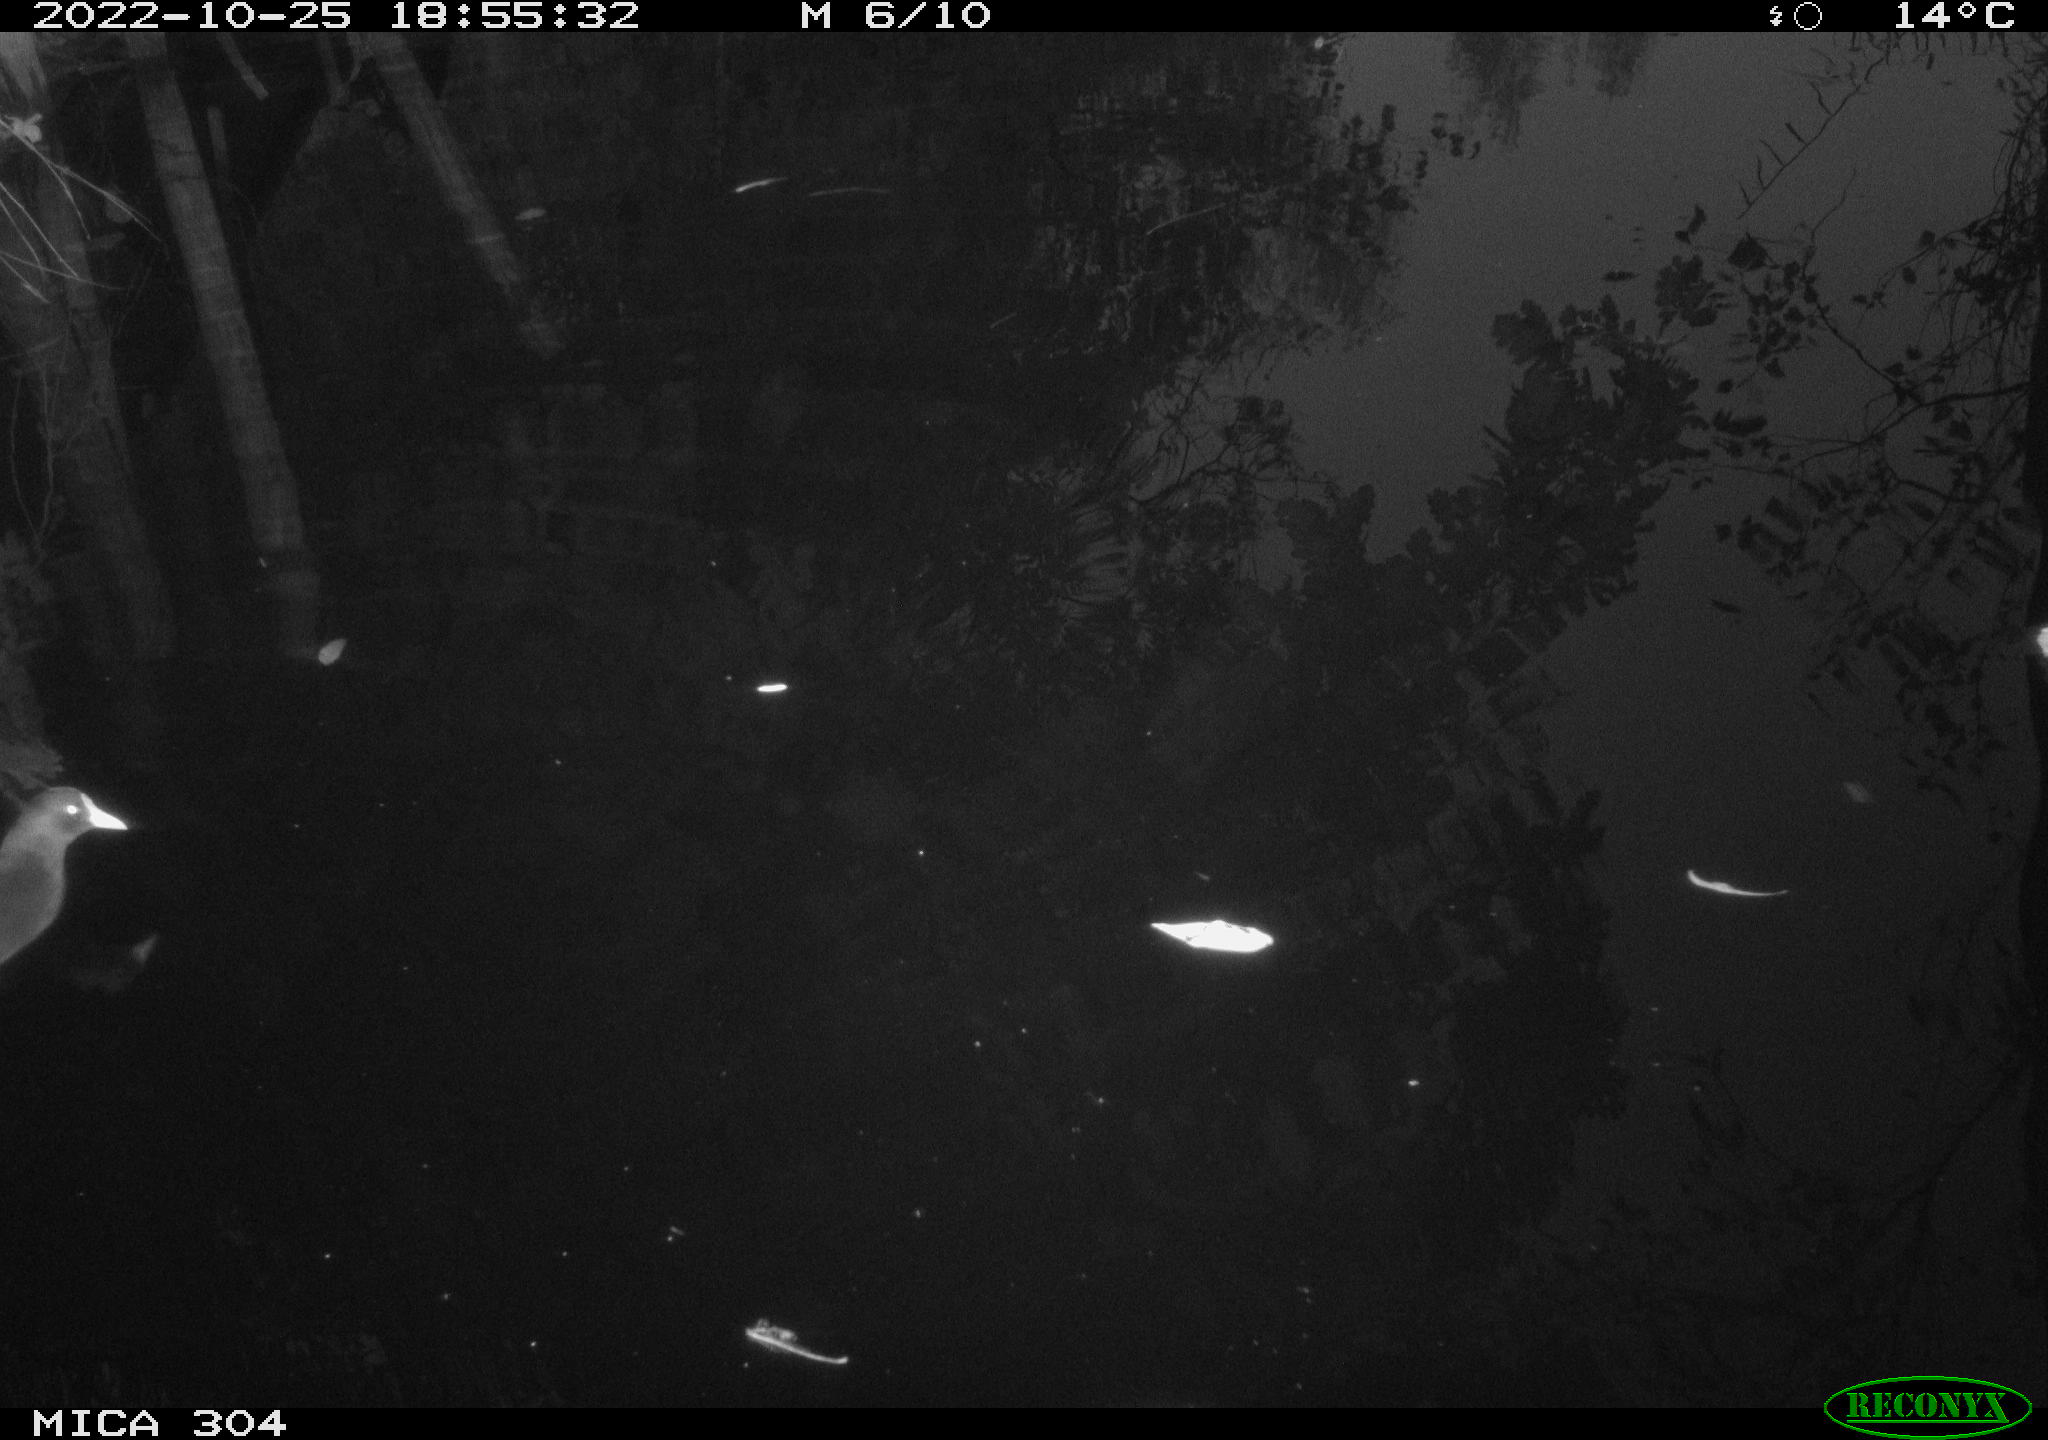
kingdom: Animalia
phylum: Chordata
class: Aves
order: Gruiformes
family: Rallidae
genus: Gallinula
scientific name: Gallinula chloropus
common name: Common moorhen
